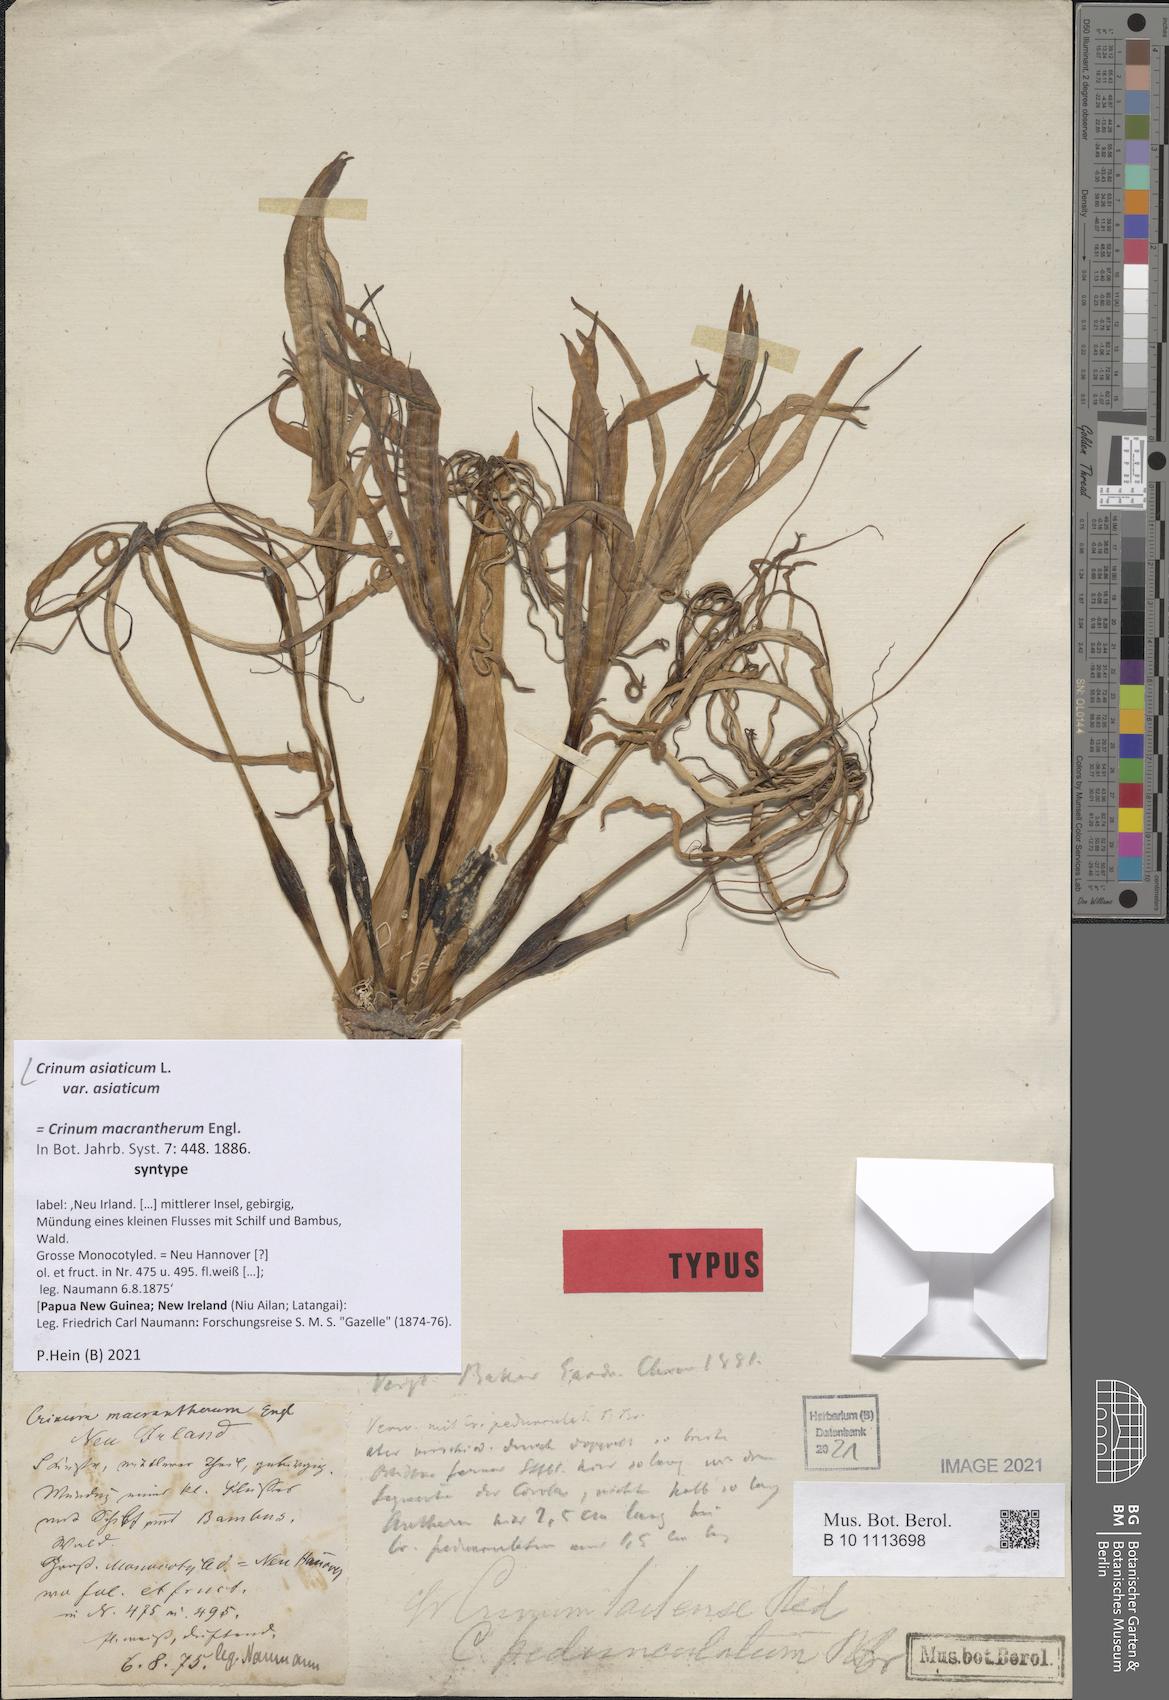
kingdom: Plantae
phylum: Tracheophyta
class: Liliopsida
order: Asparagales
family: Amaryllidaceae
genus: Crinum
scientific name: Crinum asiaticum
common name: Poisonbulb
